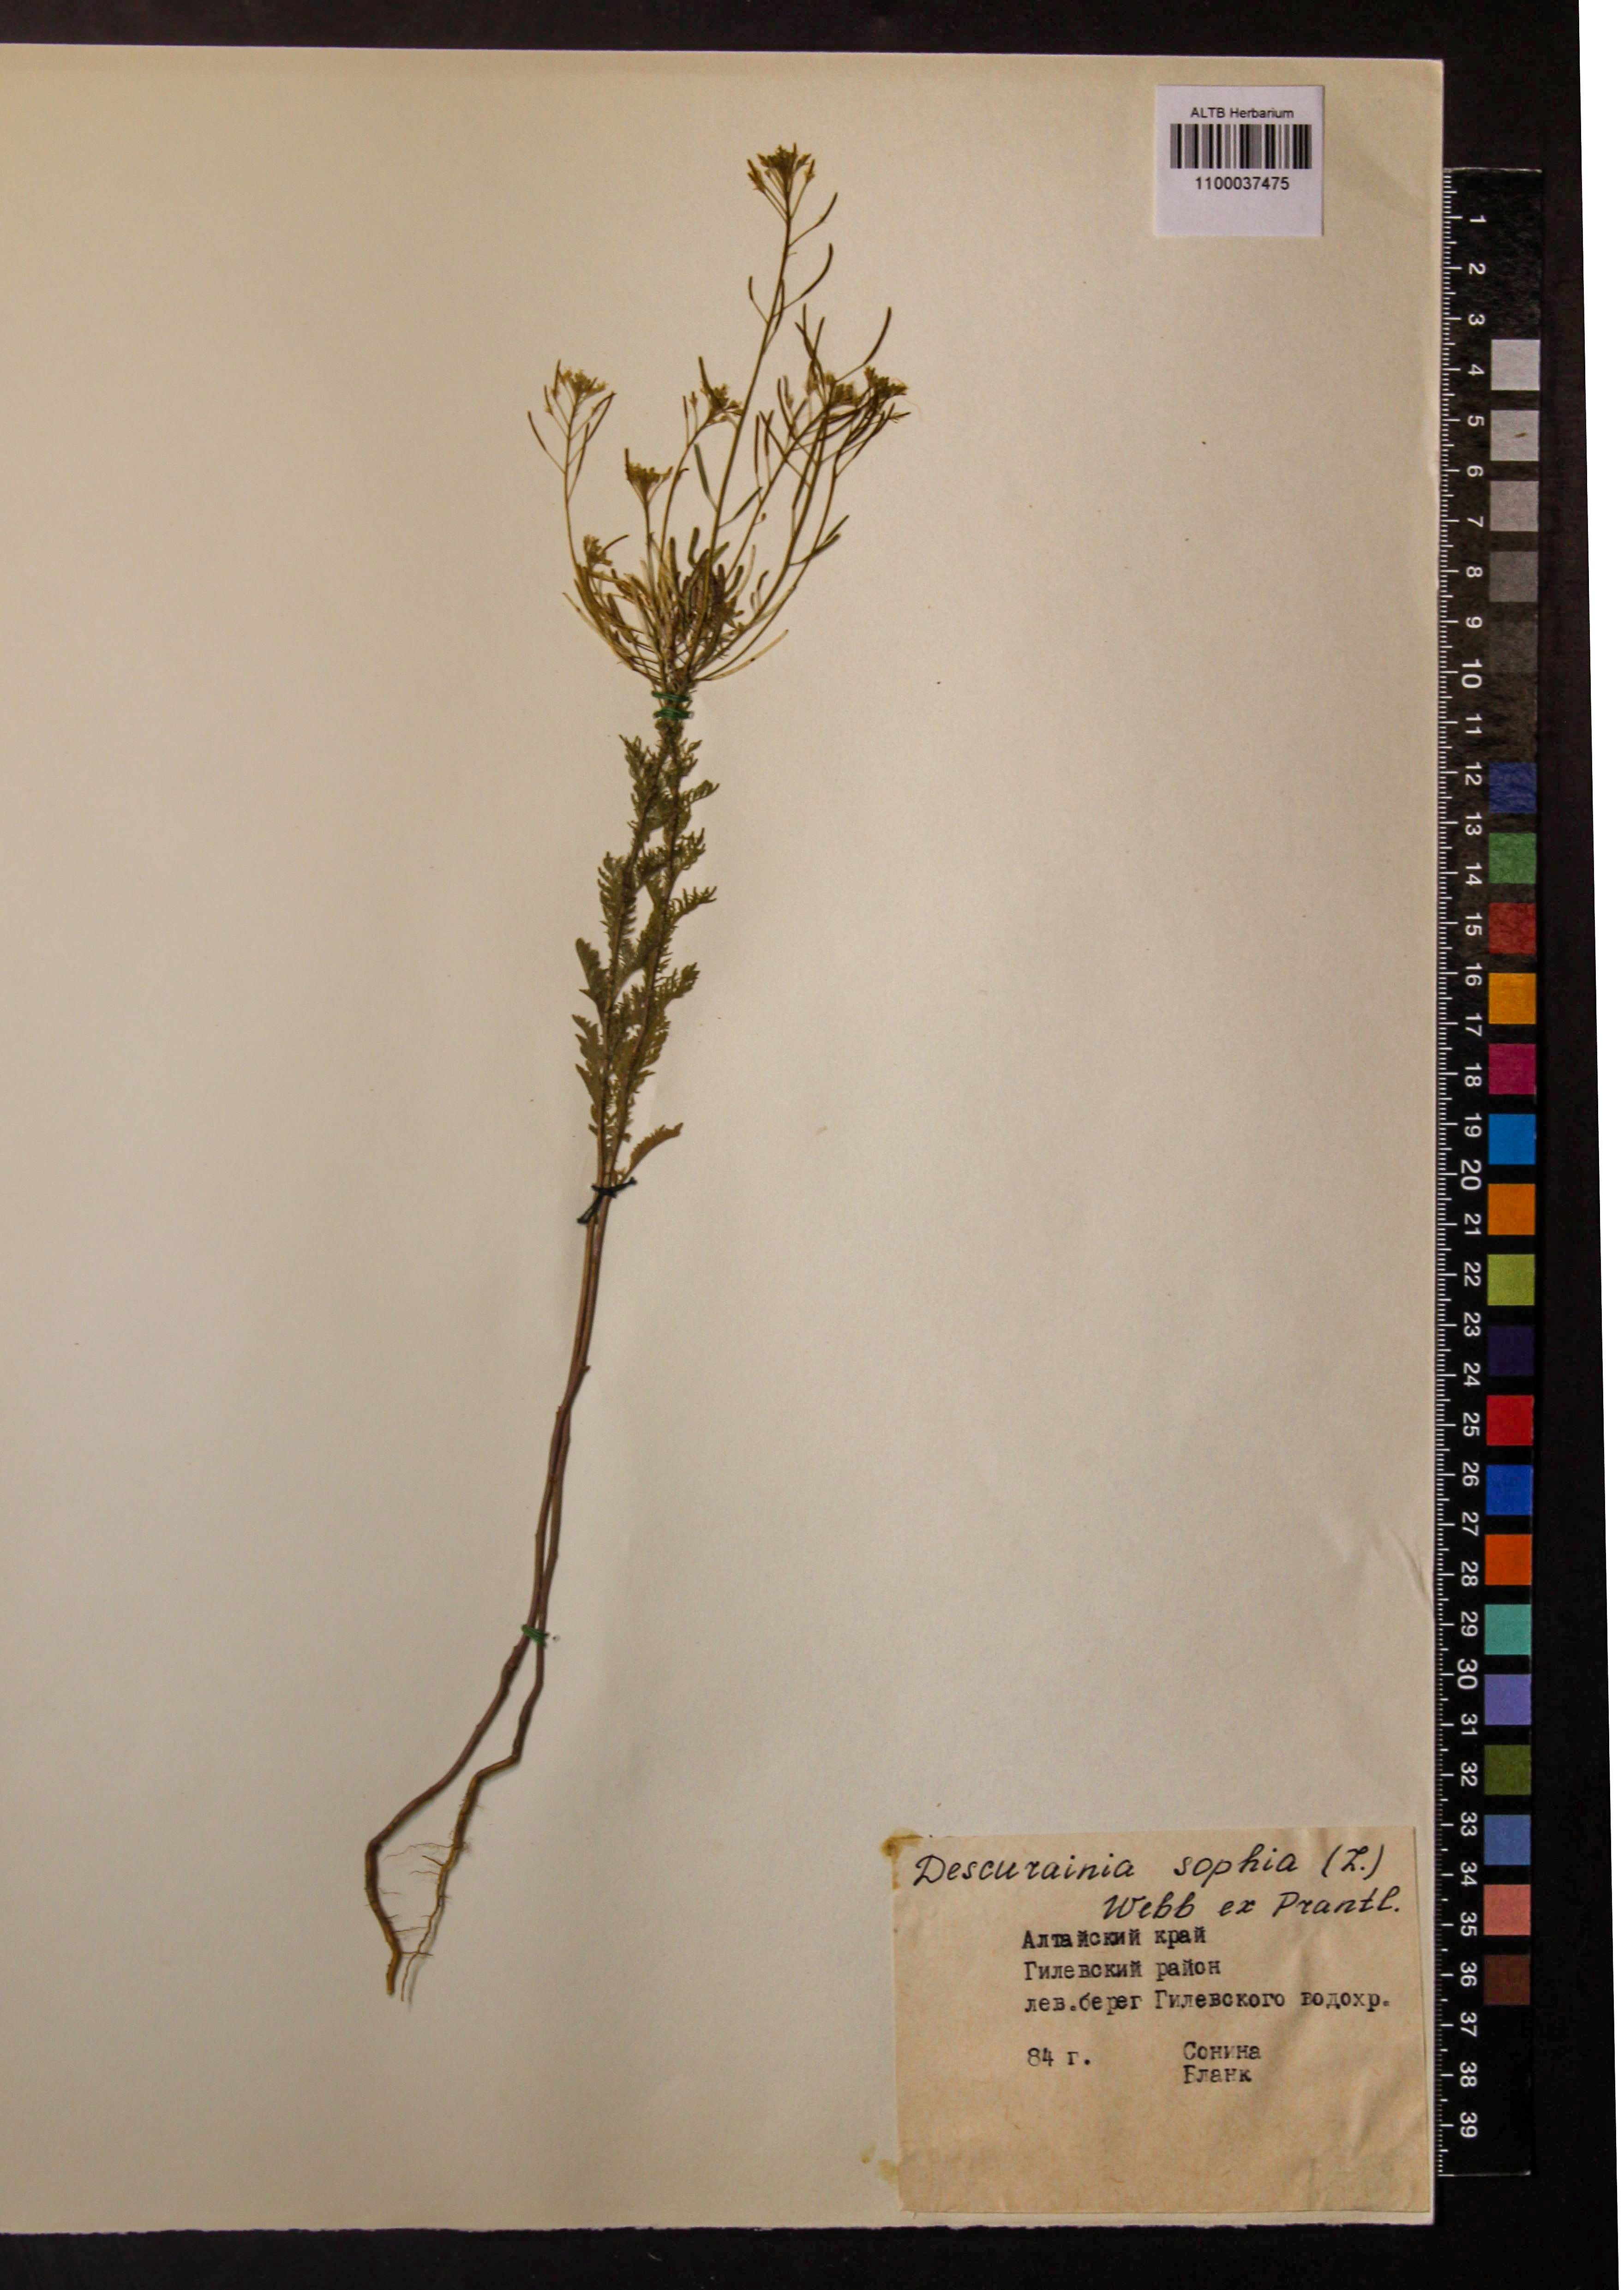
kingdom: Plantae
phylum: Tracheophyta
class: Magnoliopsida
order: Brassicales
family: Brassicaceae
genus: Descurainia
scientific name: Descurainia sophia
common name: Flixweed
